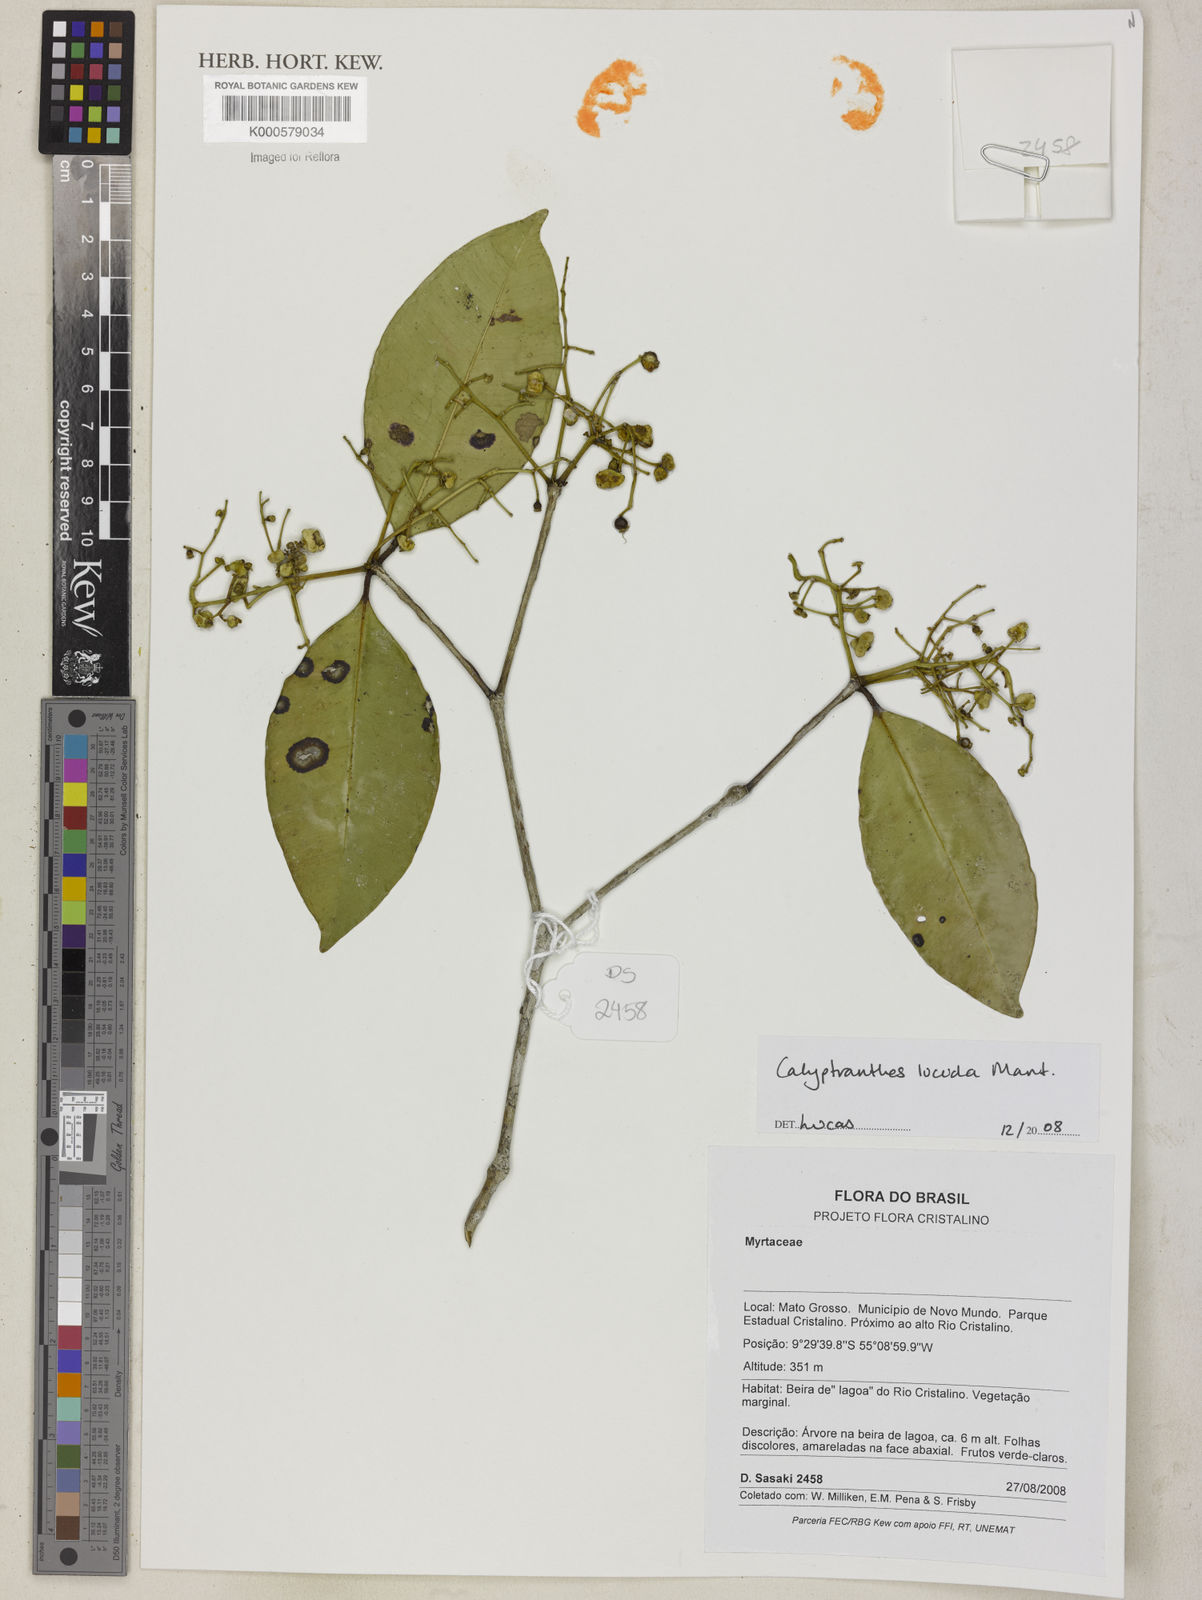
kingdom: Plantae
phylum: Tracheophyta
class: Magnoliopsida
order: Myrtales
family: Myrtaceae
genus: Calyptranthes
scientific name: Calyptranthes
